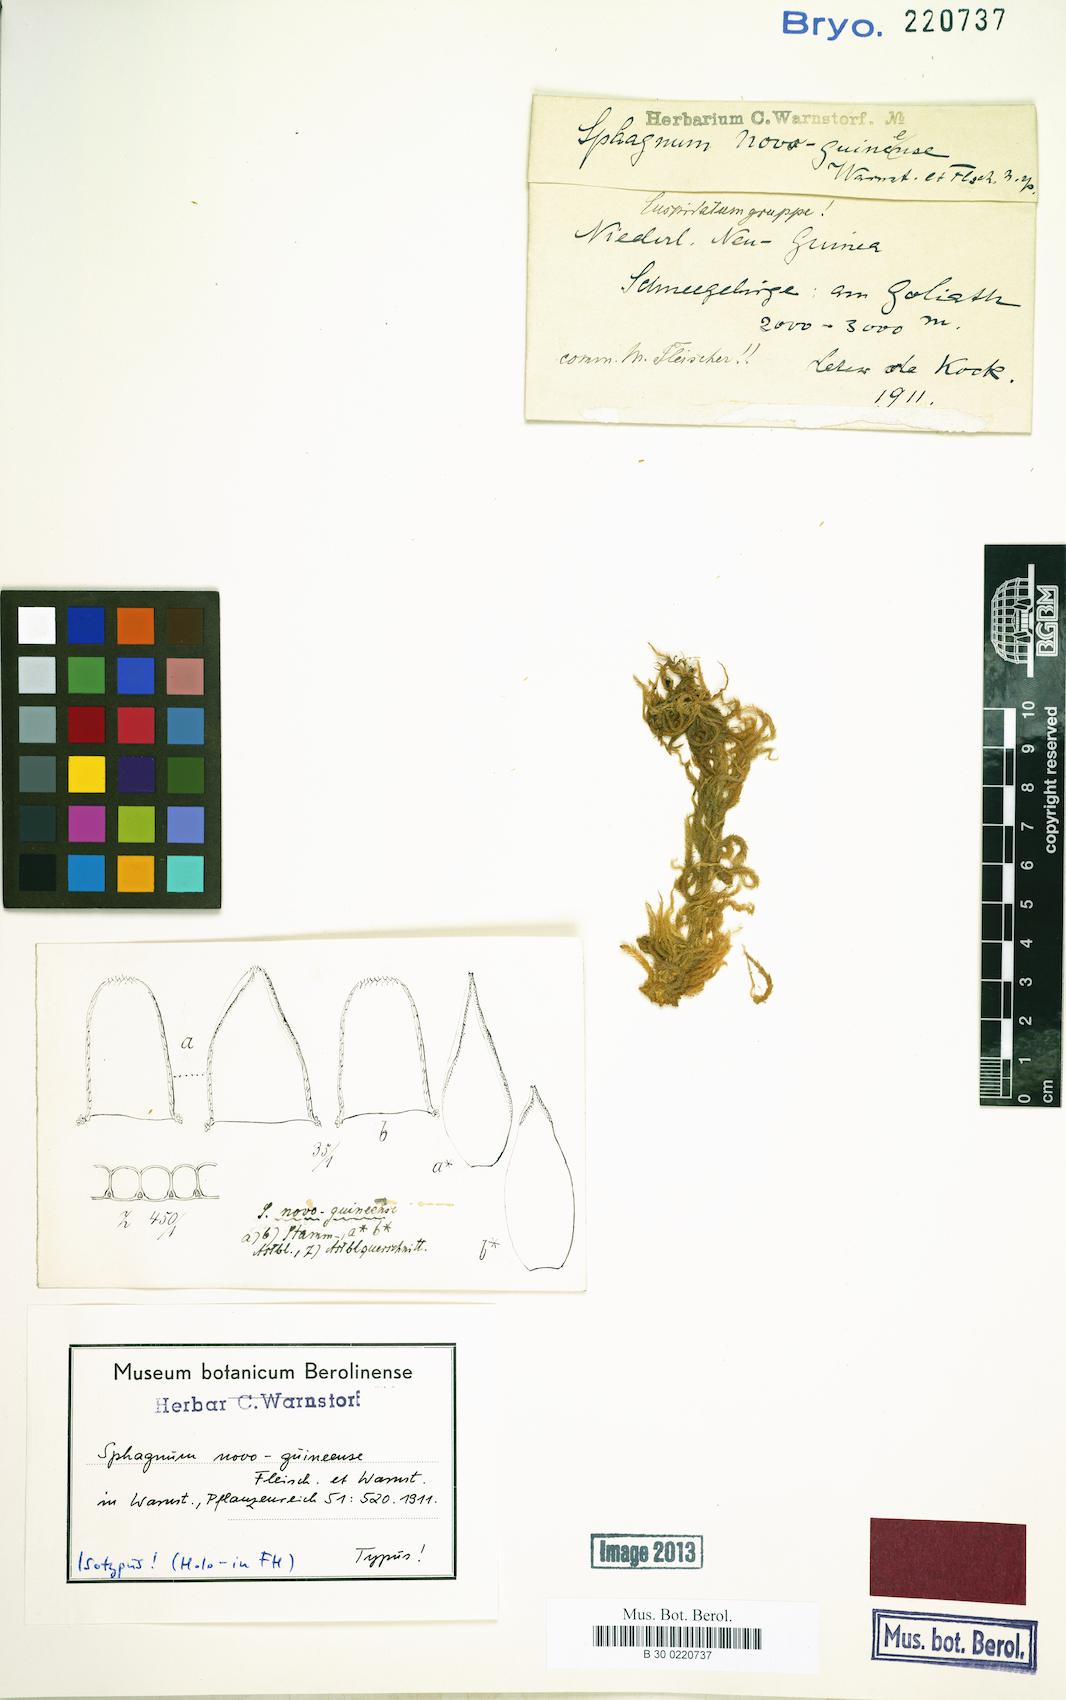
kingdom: Plantae
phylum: Bryophyta
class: Sphagnopsida
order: Sphagnales
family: Sphagnaceae
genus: Sphagnum
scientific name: Sphagnum
